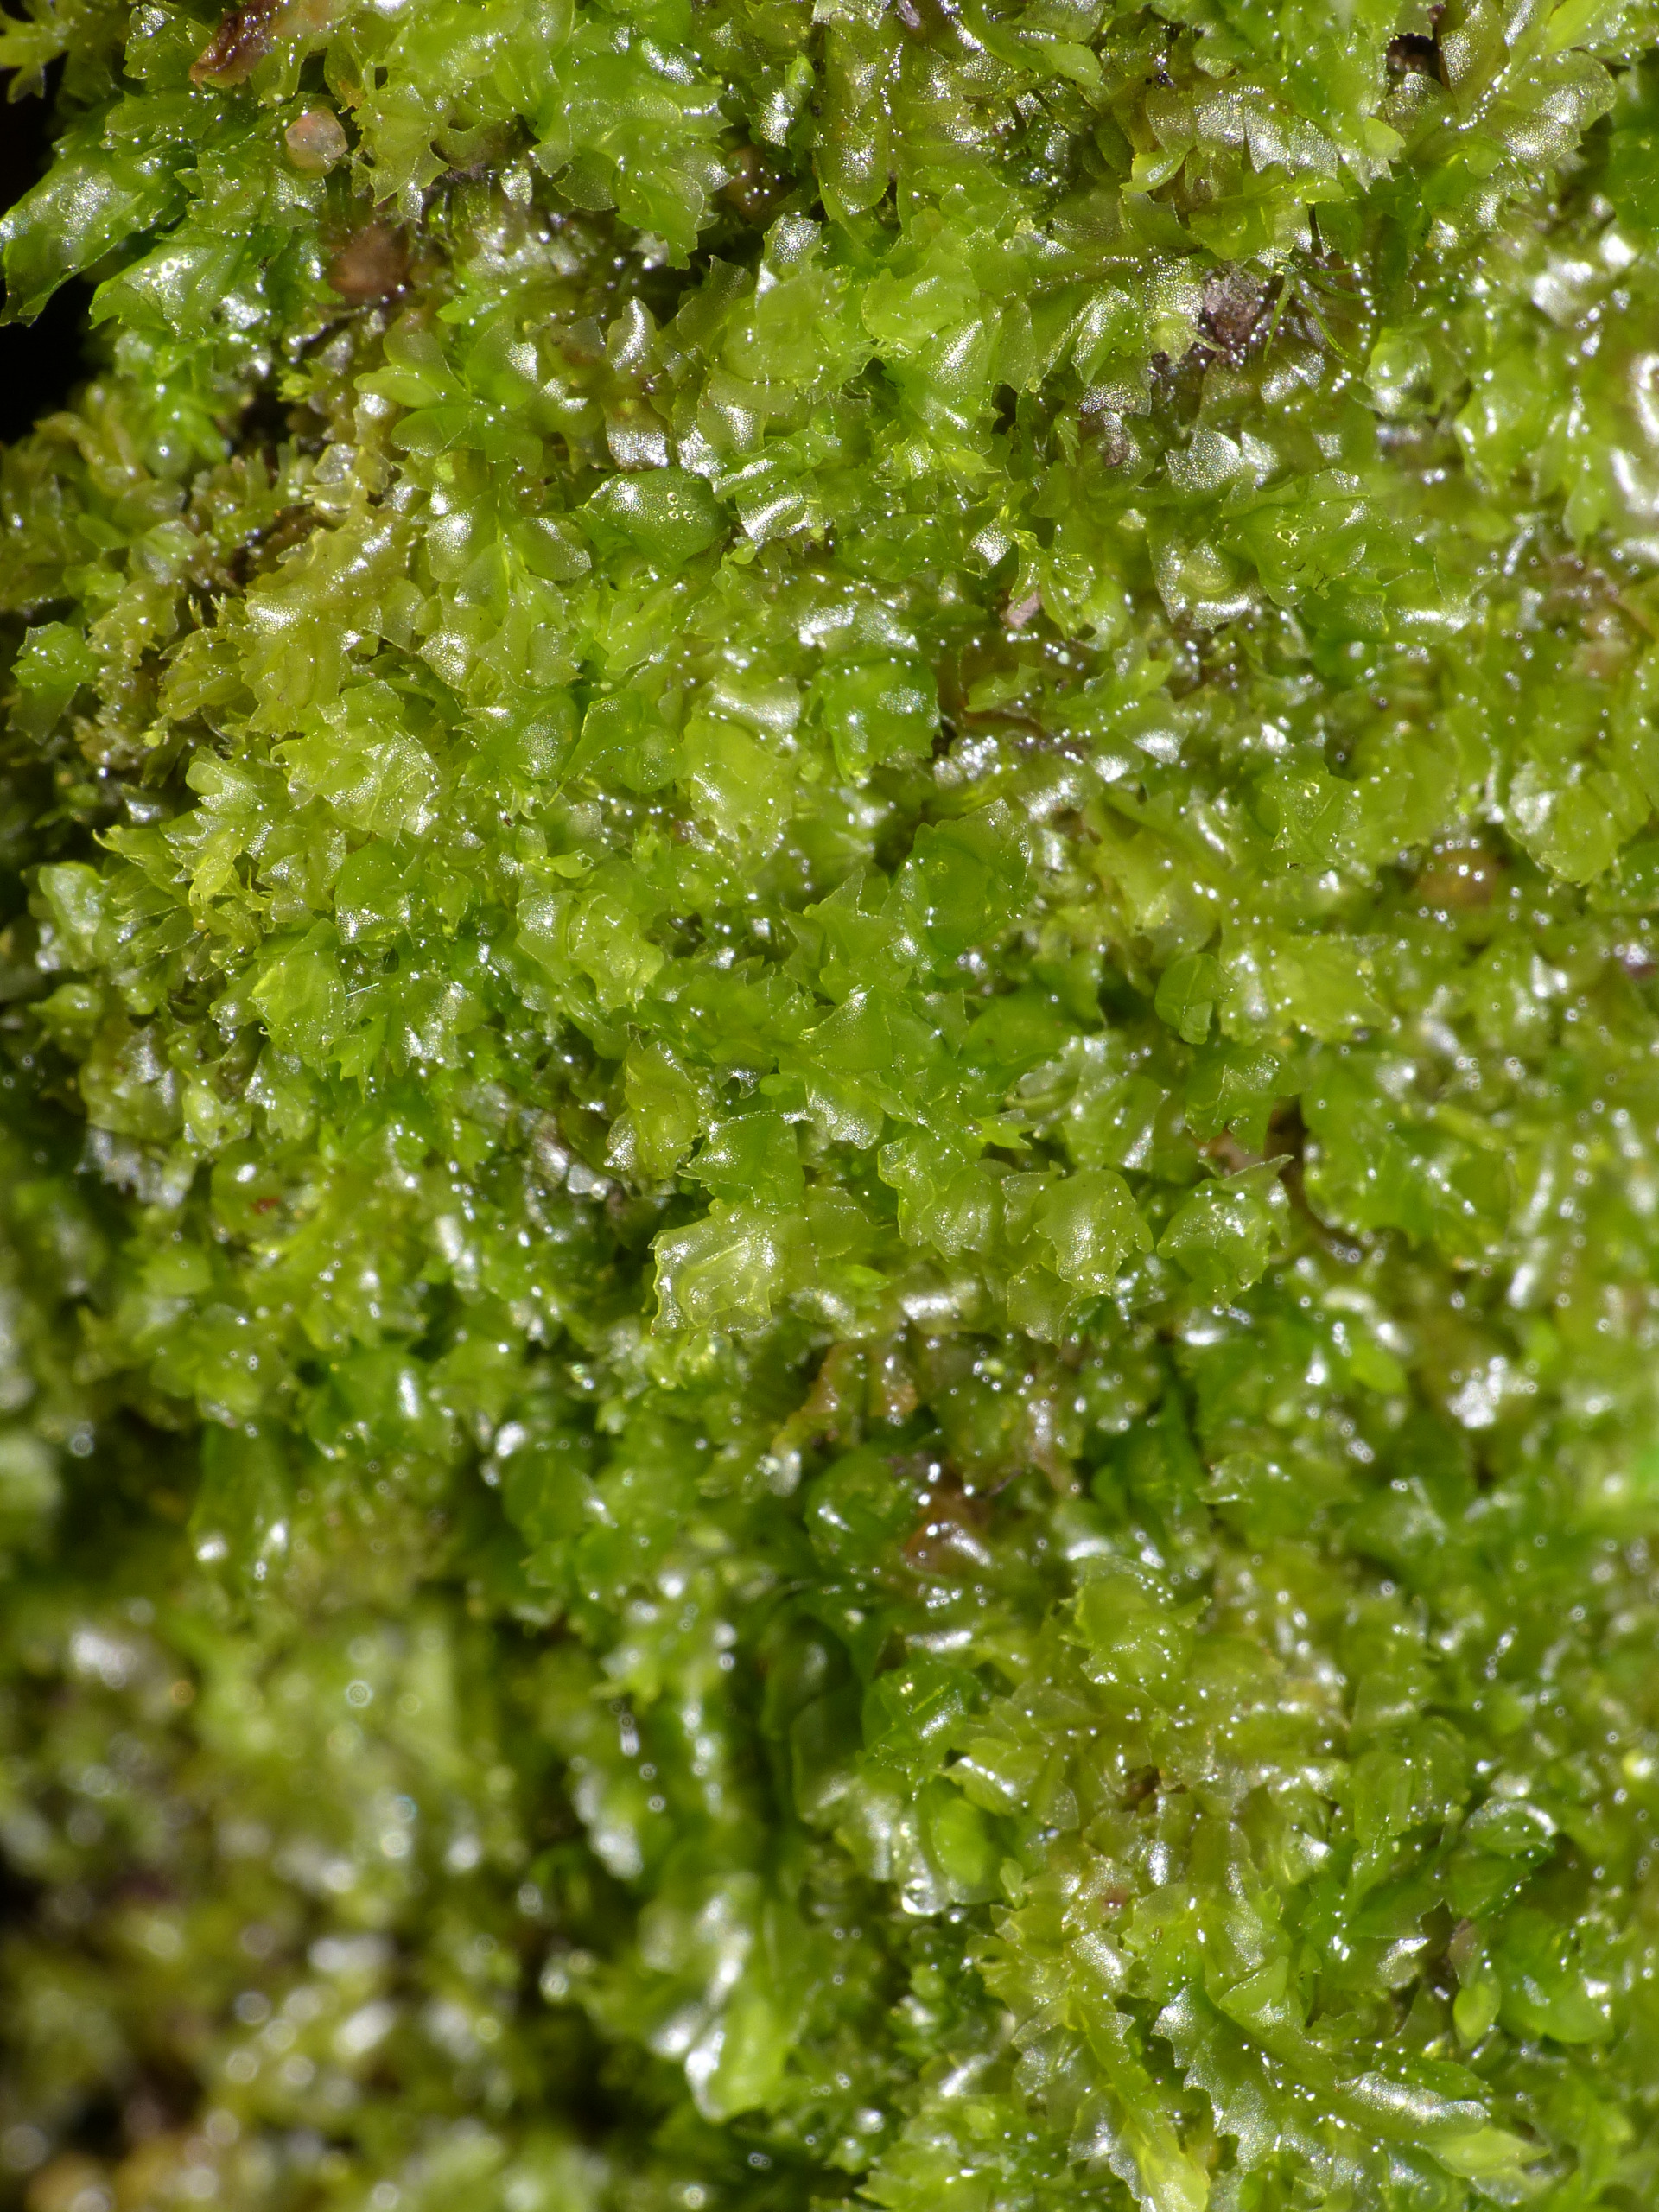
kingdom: Plantae
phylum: Marchantiophyta
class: Jungermanniopsida
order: Jungermanniales
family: Lophocoleaceae
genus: Lophocolea
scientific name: Lophocolea heterophylla
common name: Forskelligbladet kamsvøb
